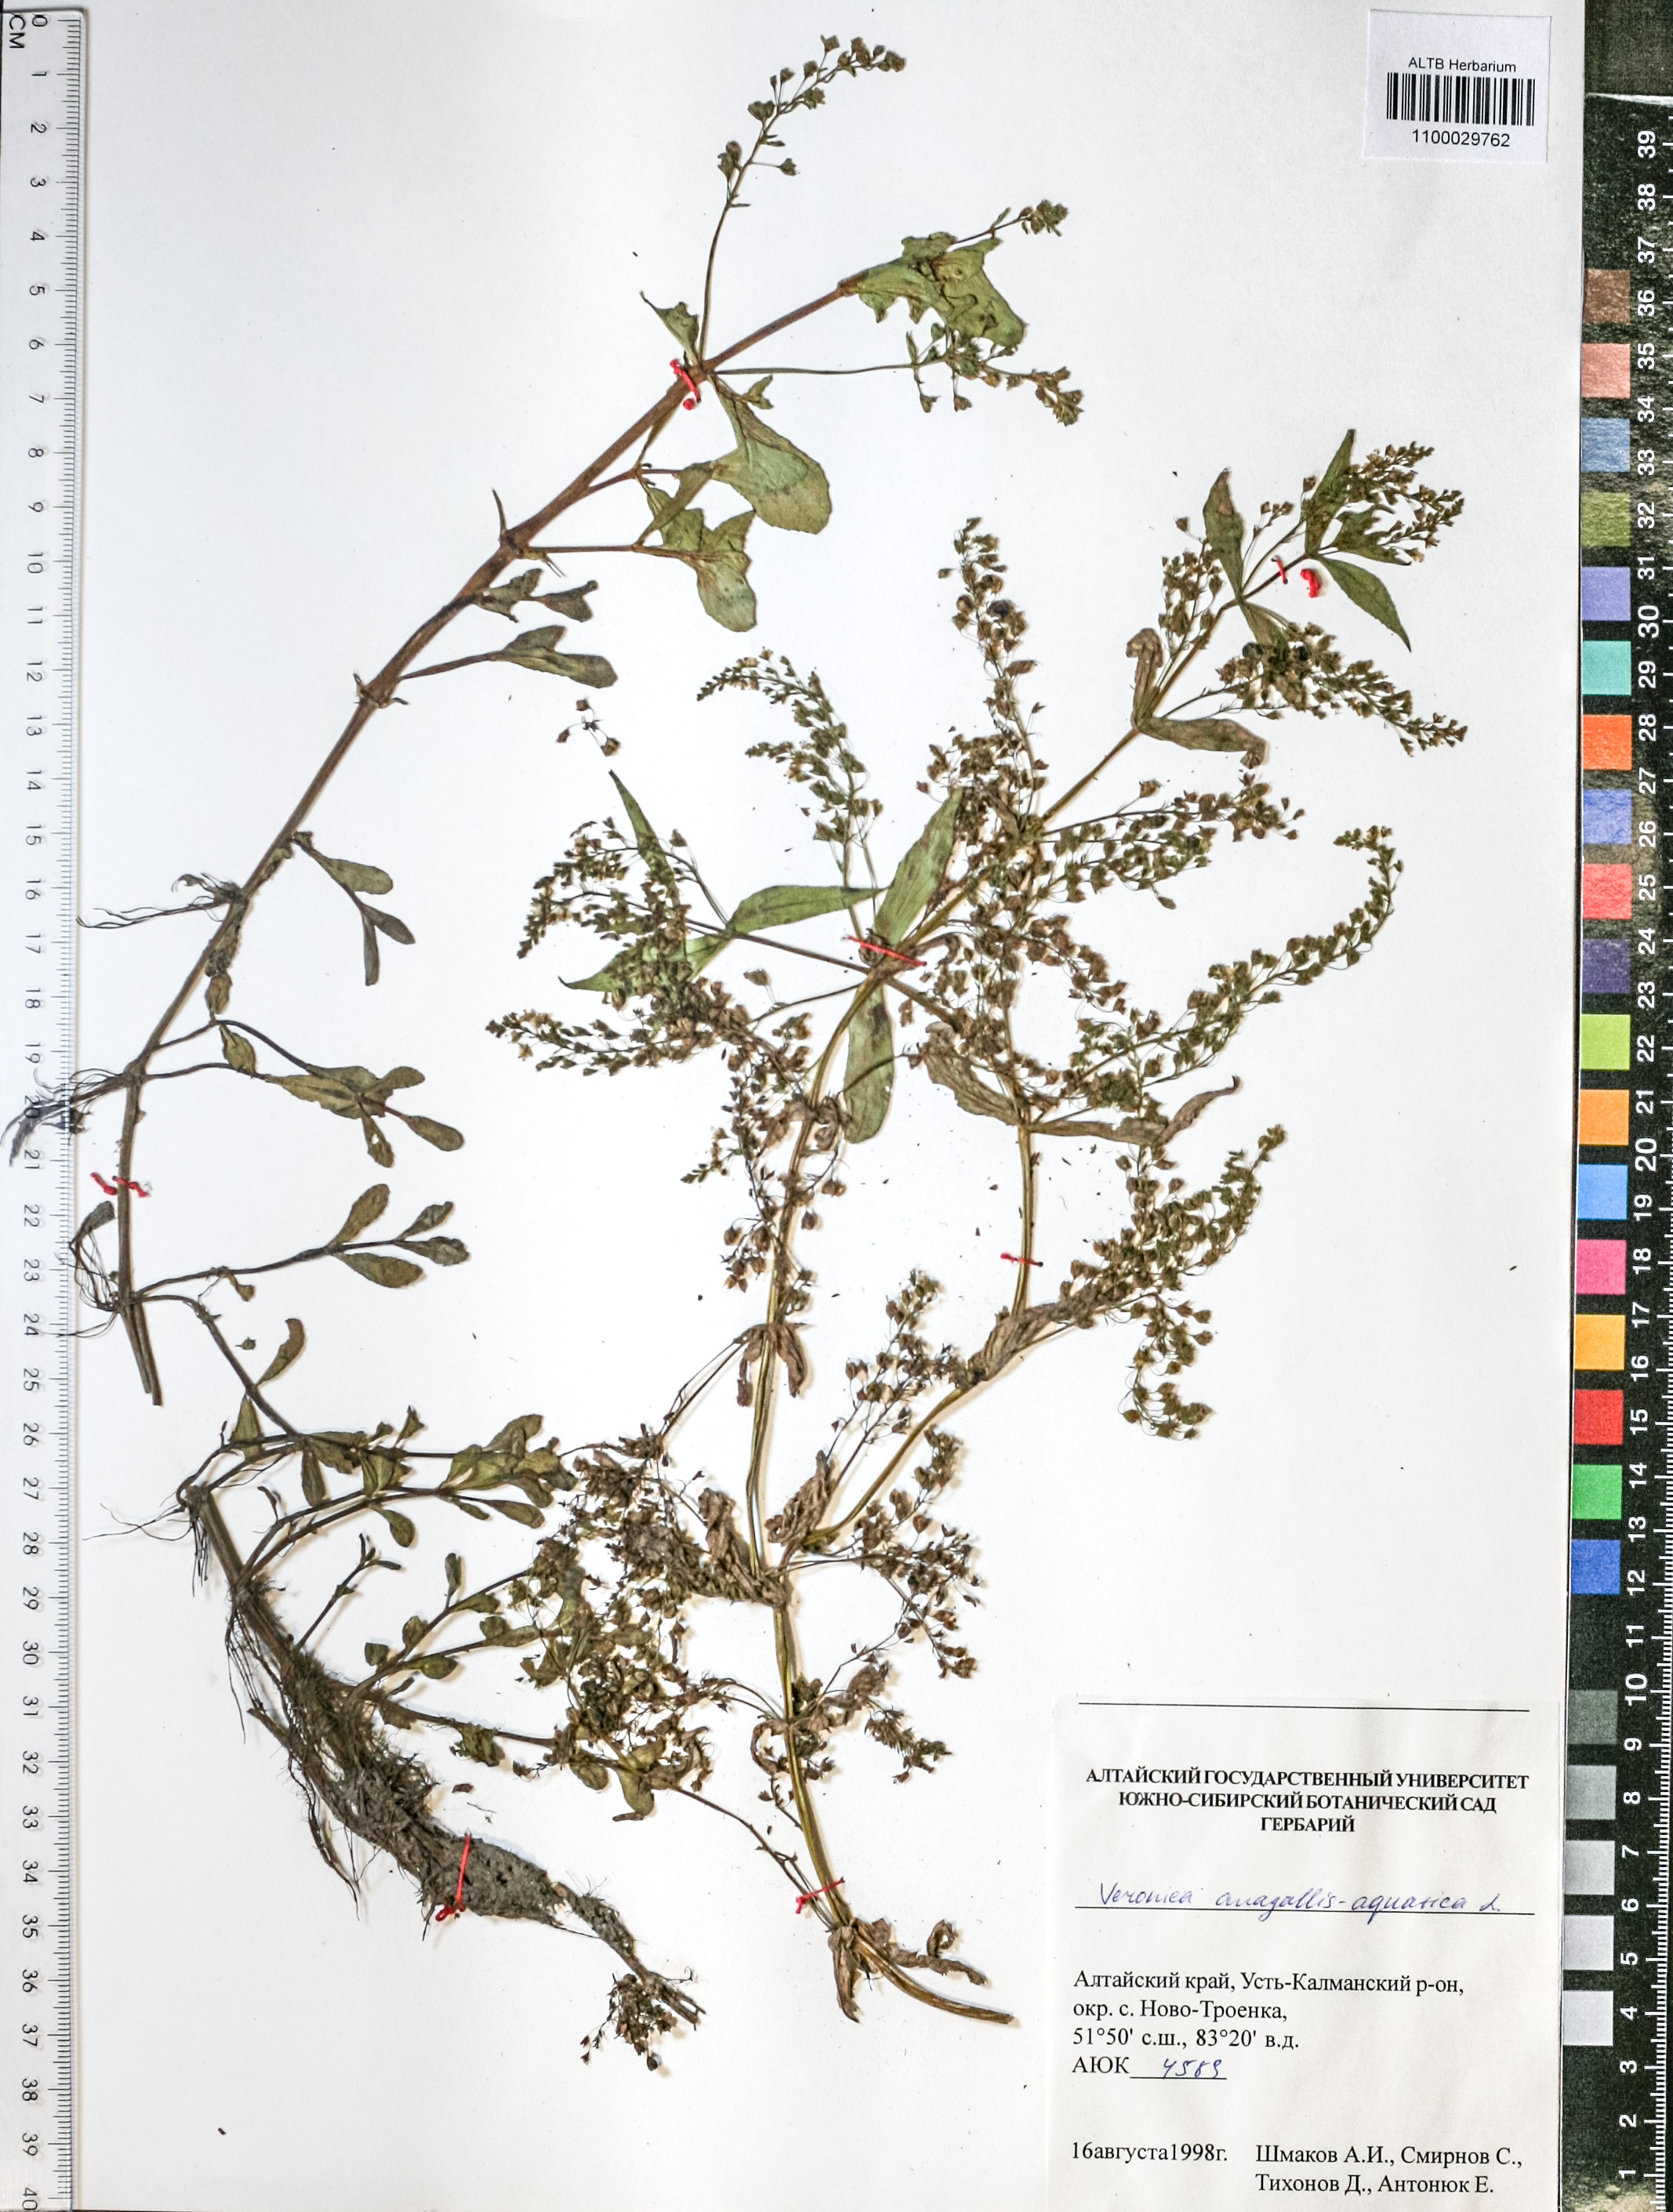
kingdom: Plantae
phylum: Tracheophyta
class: Magnoliopsida
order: Lamiales
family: Plantaginaceae
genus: Veronica
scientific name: Veronica anagallis-aquatica
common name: Water speedwell
